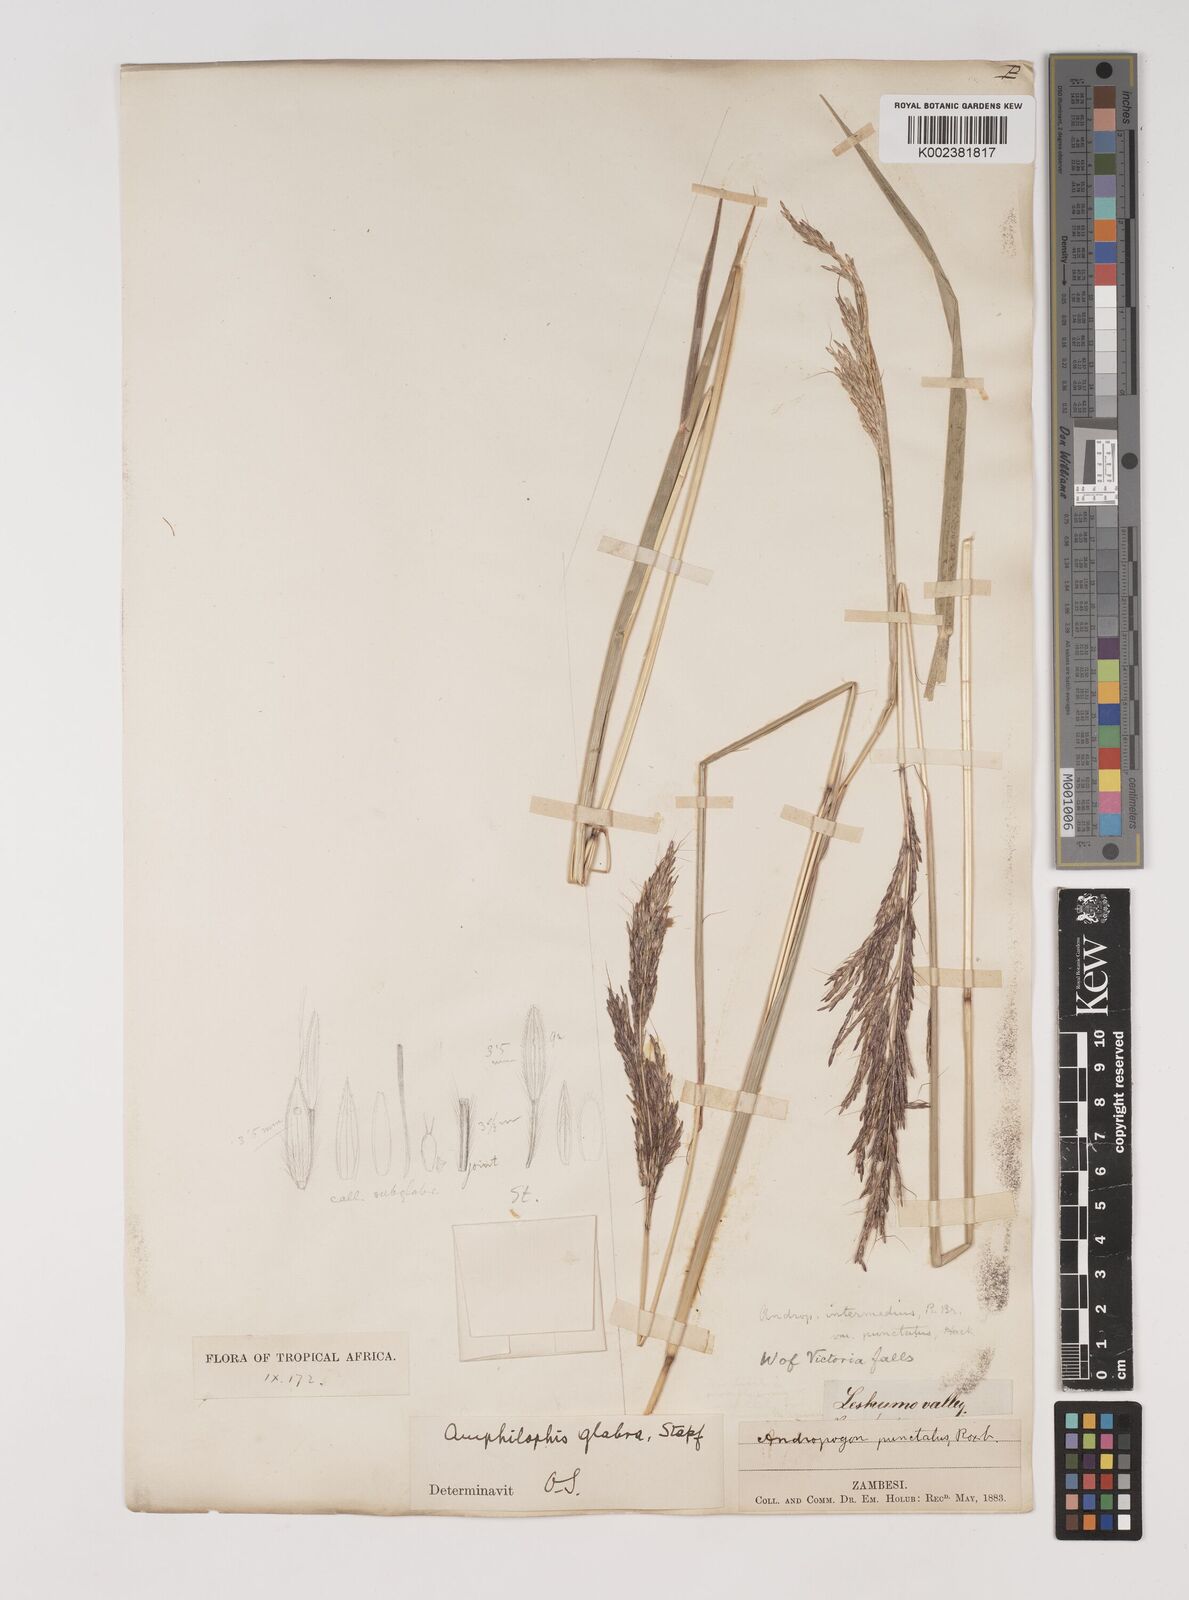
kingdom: Plantae
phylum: Tracheophyta
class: Liliopsida
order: Poales
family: Poaceae
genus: Bothriochloa
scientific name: Bothriochloa bladhii
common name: Caucasian bluestem
